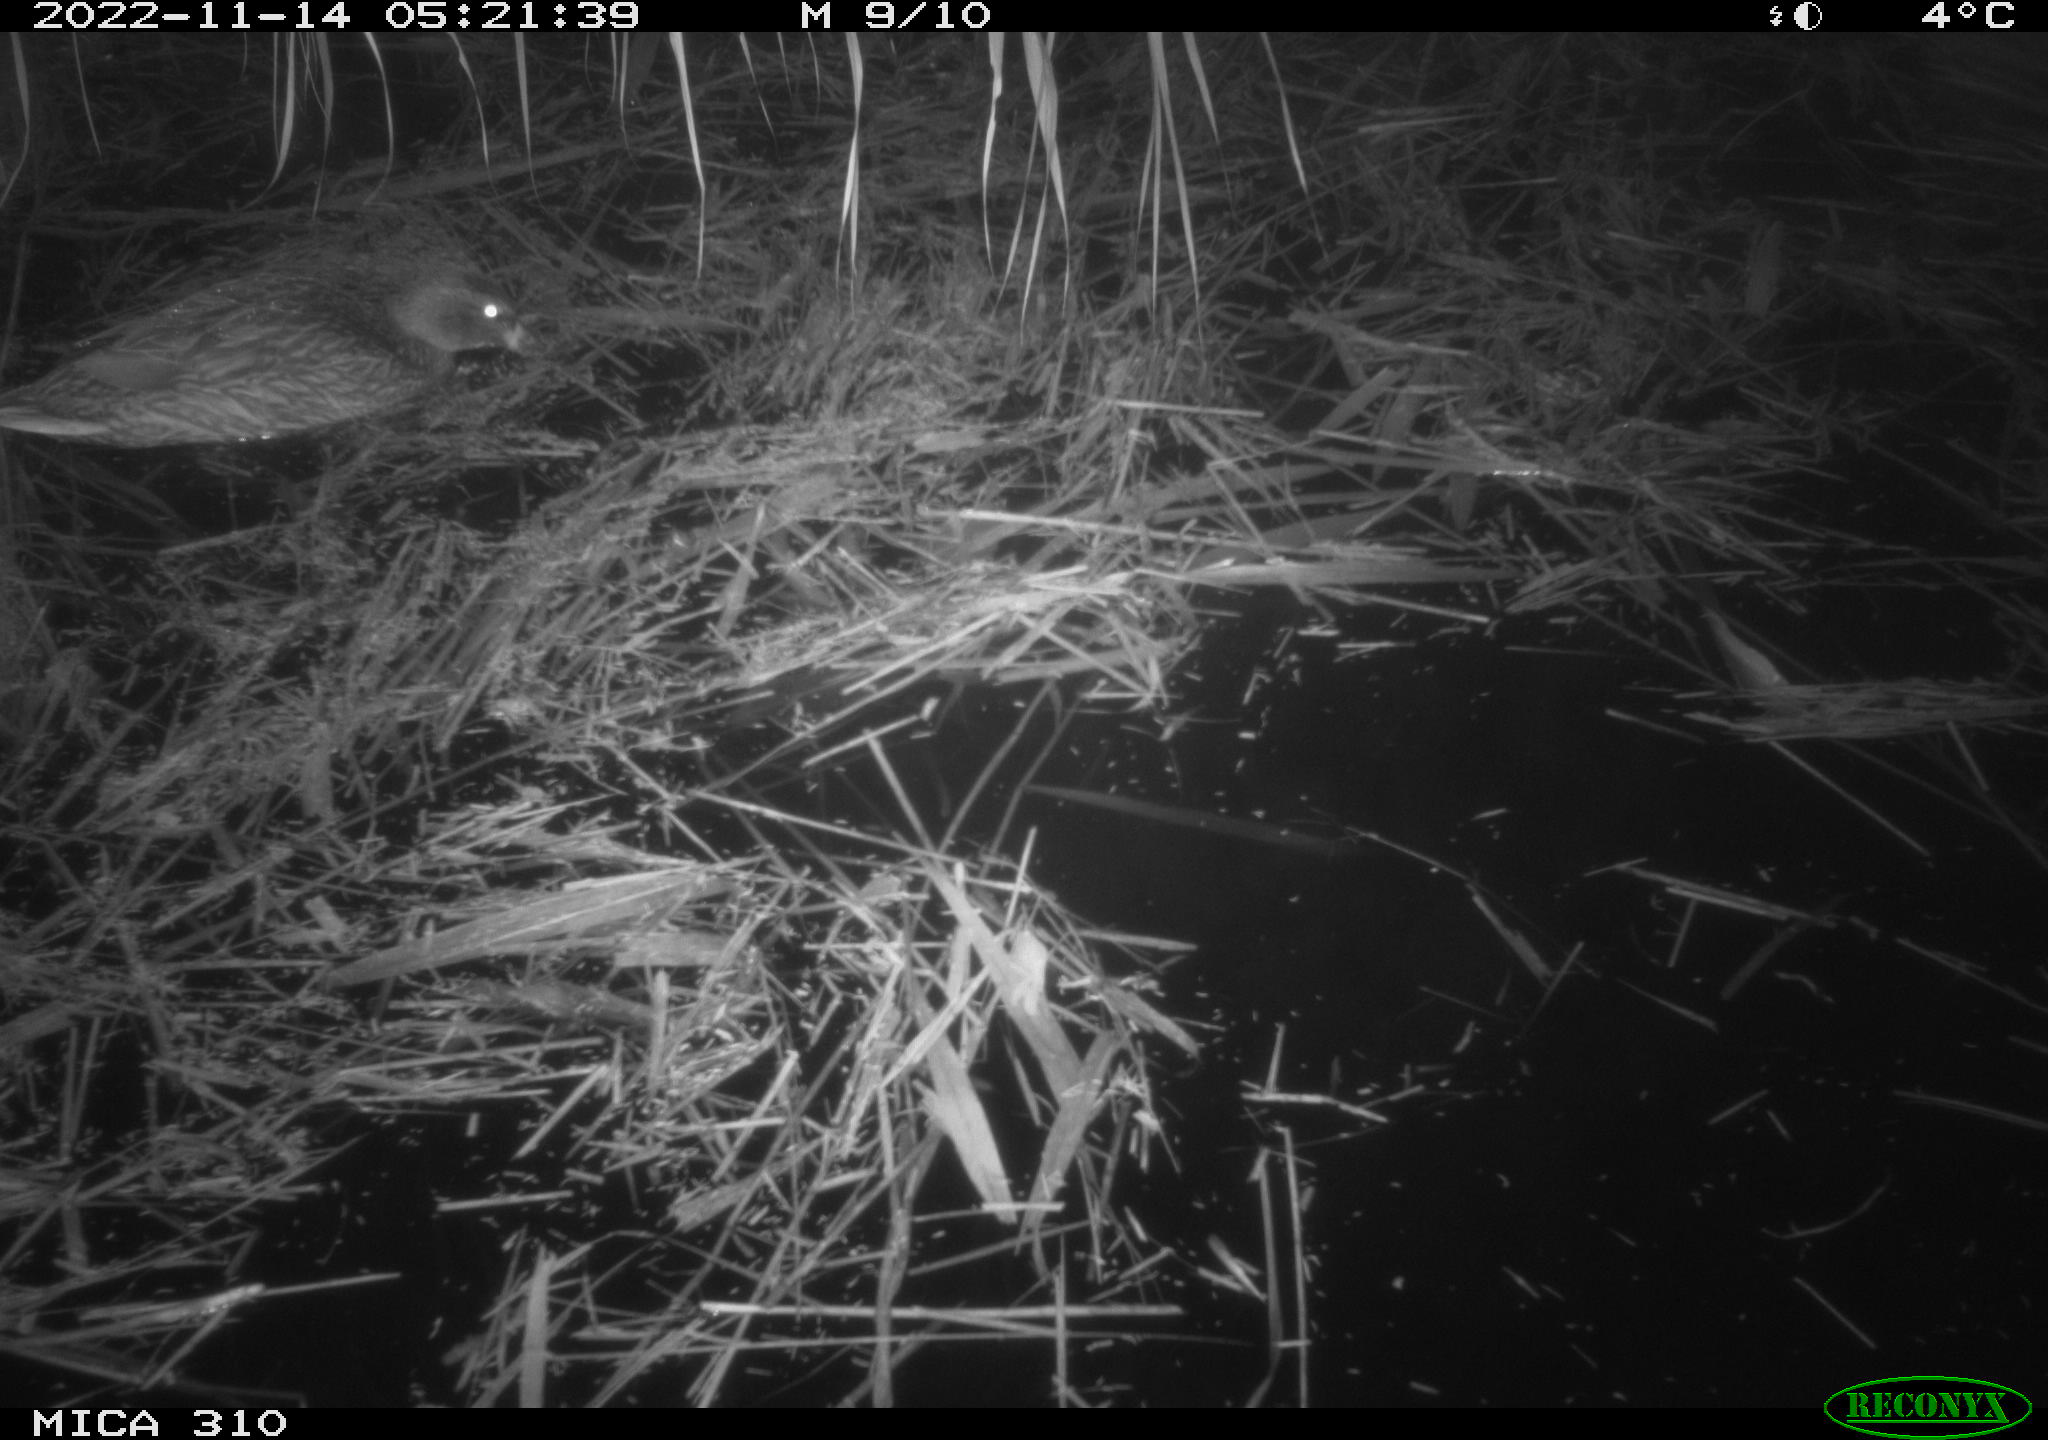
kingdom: Animalia
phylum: Chordata
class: Mammalia
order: Rodentia
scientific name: Rodentia
